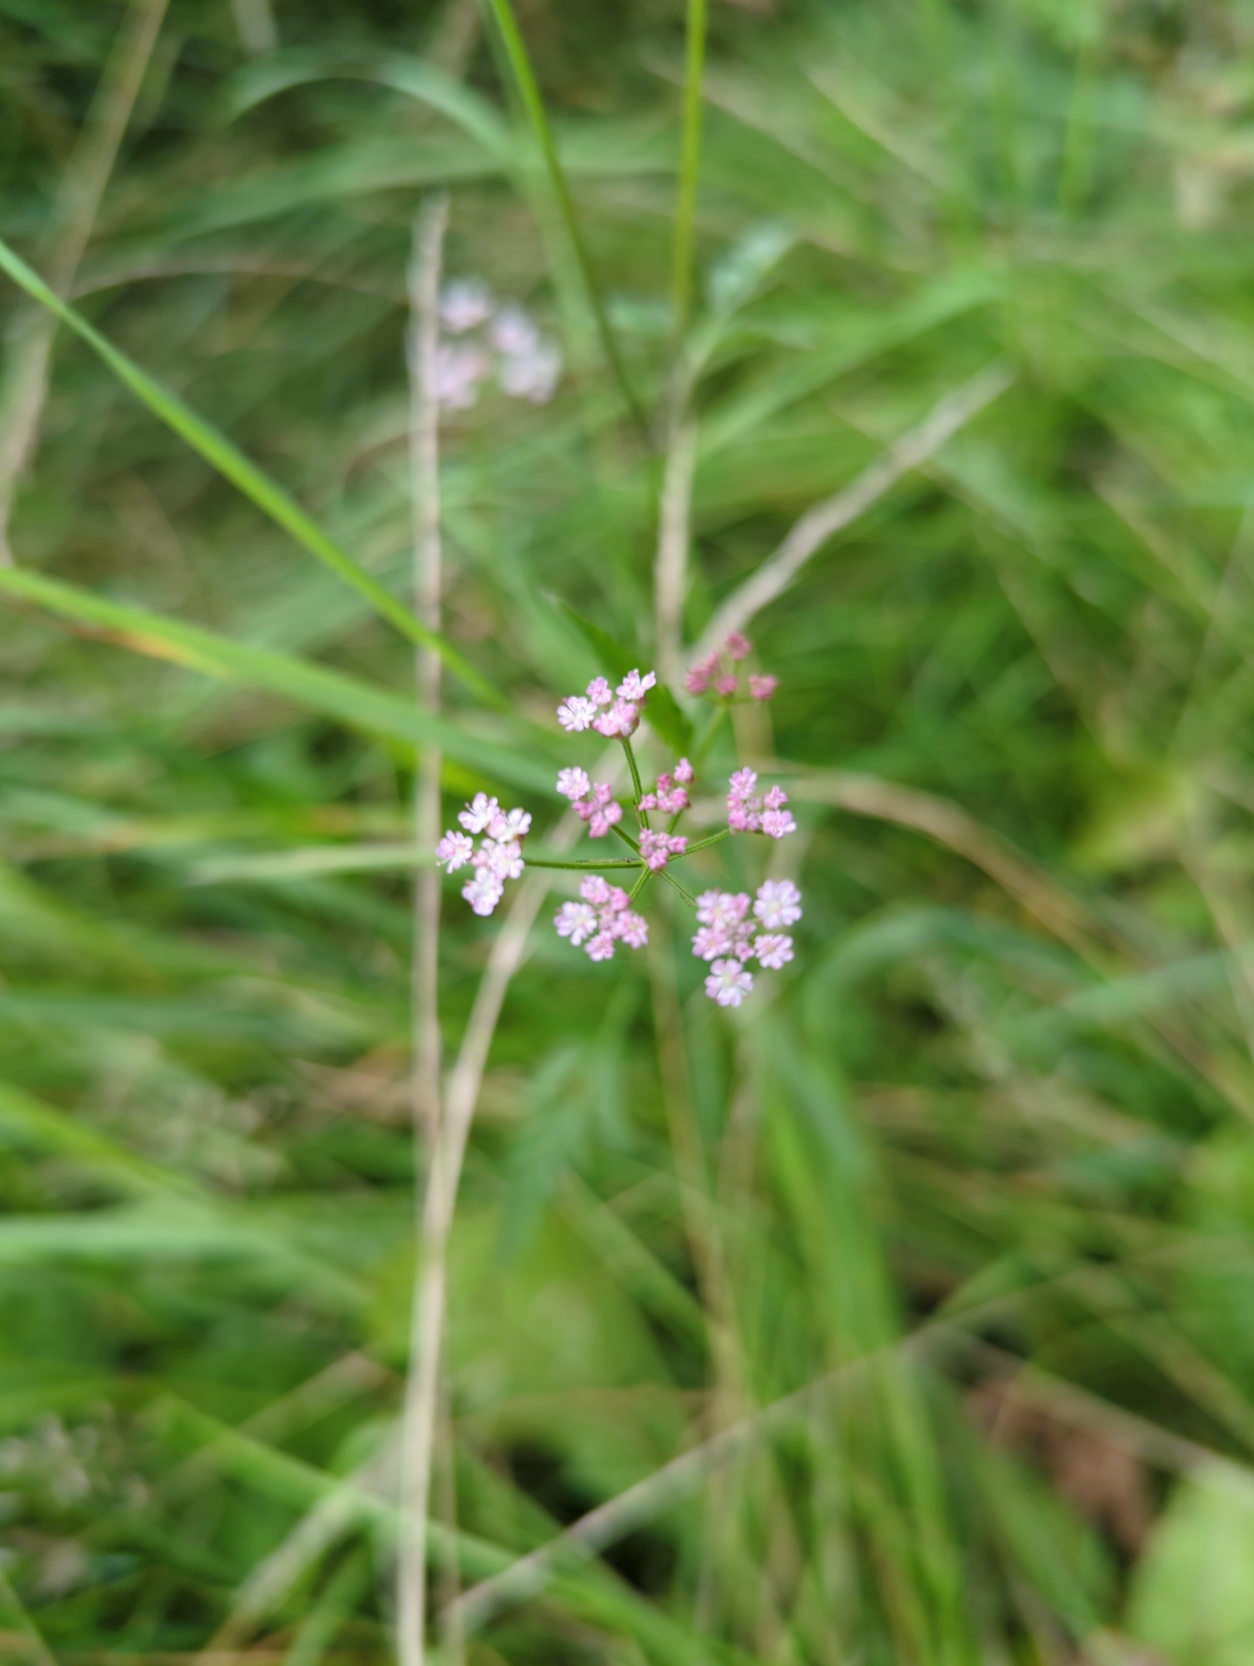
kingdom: Plantae
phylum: Tracheophyta
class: Magnoliopsida
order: Apiales
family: Apiaceae
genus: Torilis
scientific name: Torilis japonica
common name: Hvas randfrø
